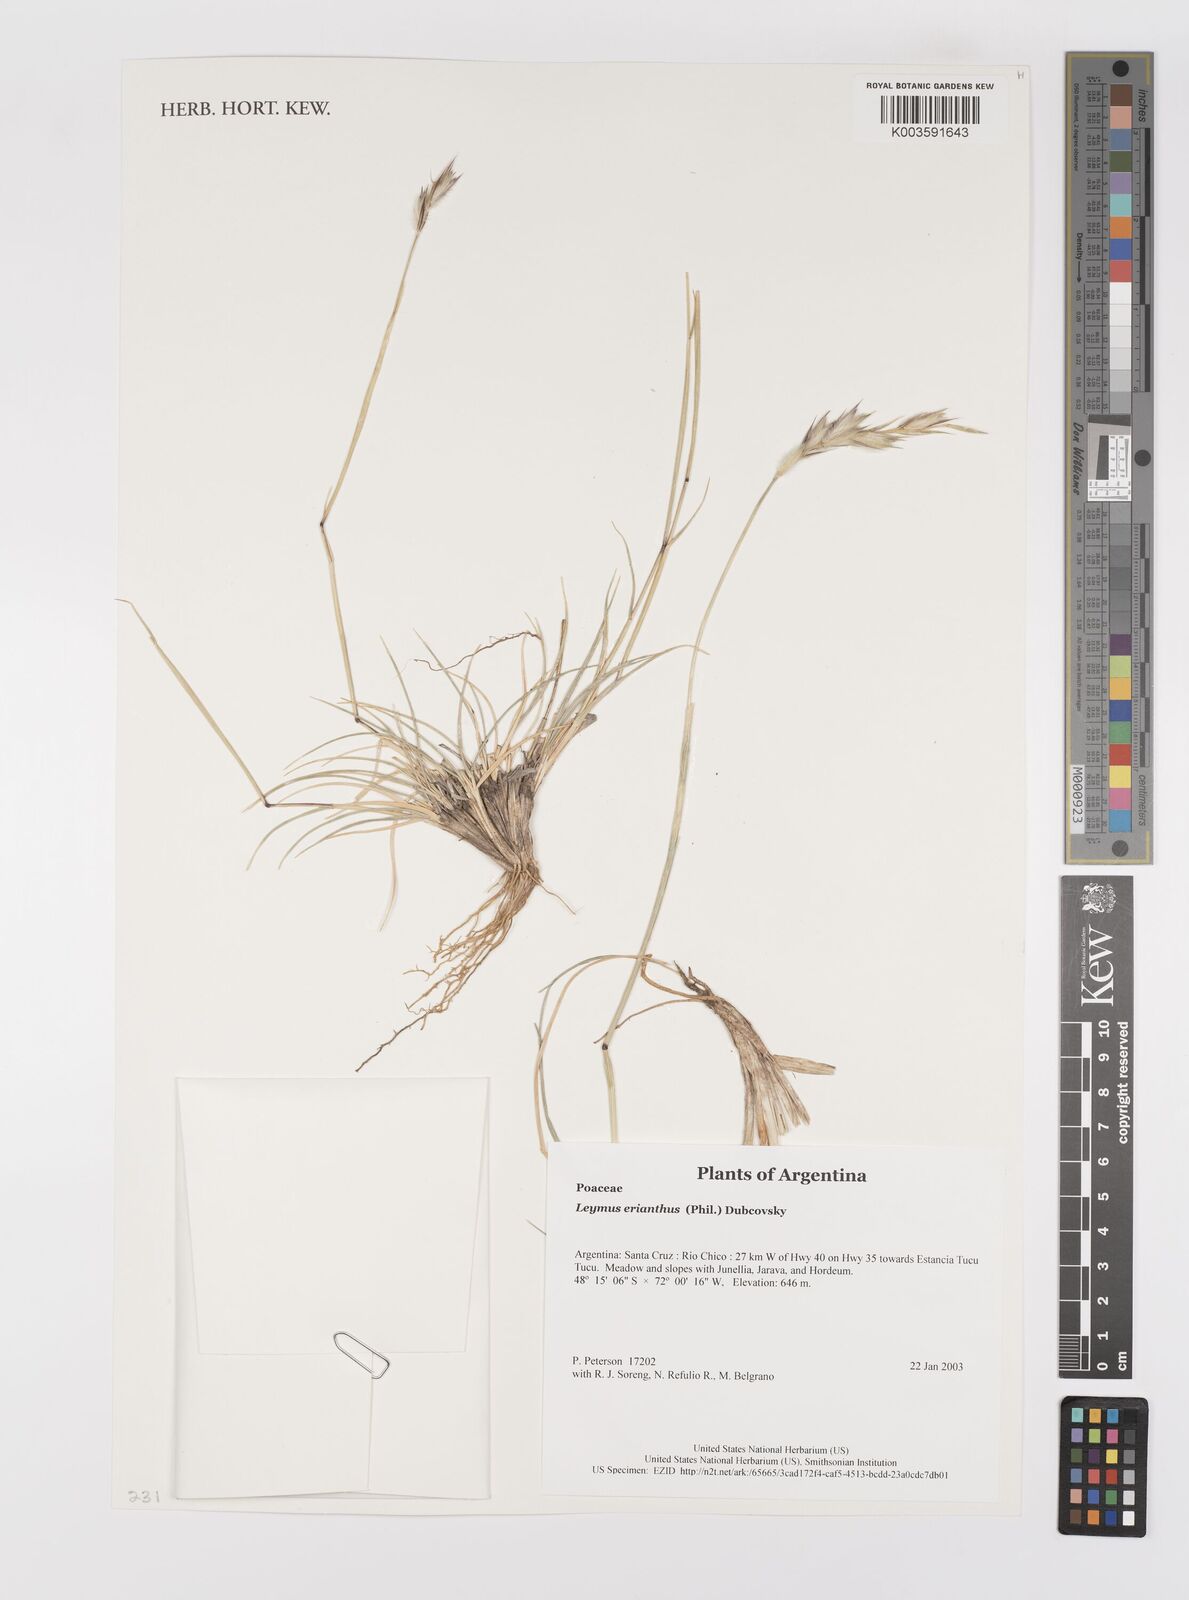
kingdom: Plantae
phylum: Tracheophyta
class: Liliopsida
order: Poales
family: Poaceae
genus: Leymus
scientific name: Leymus erianthus
